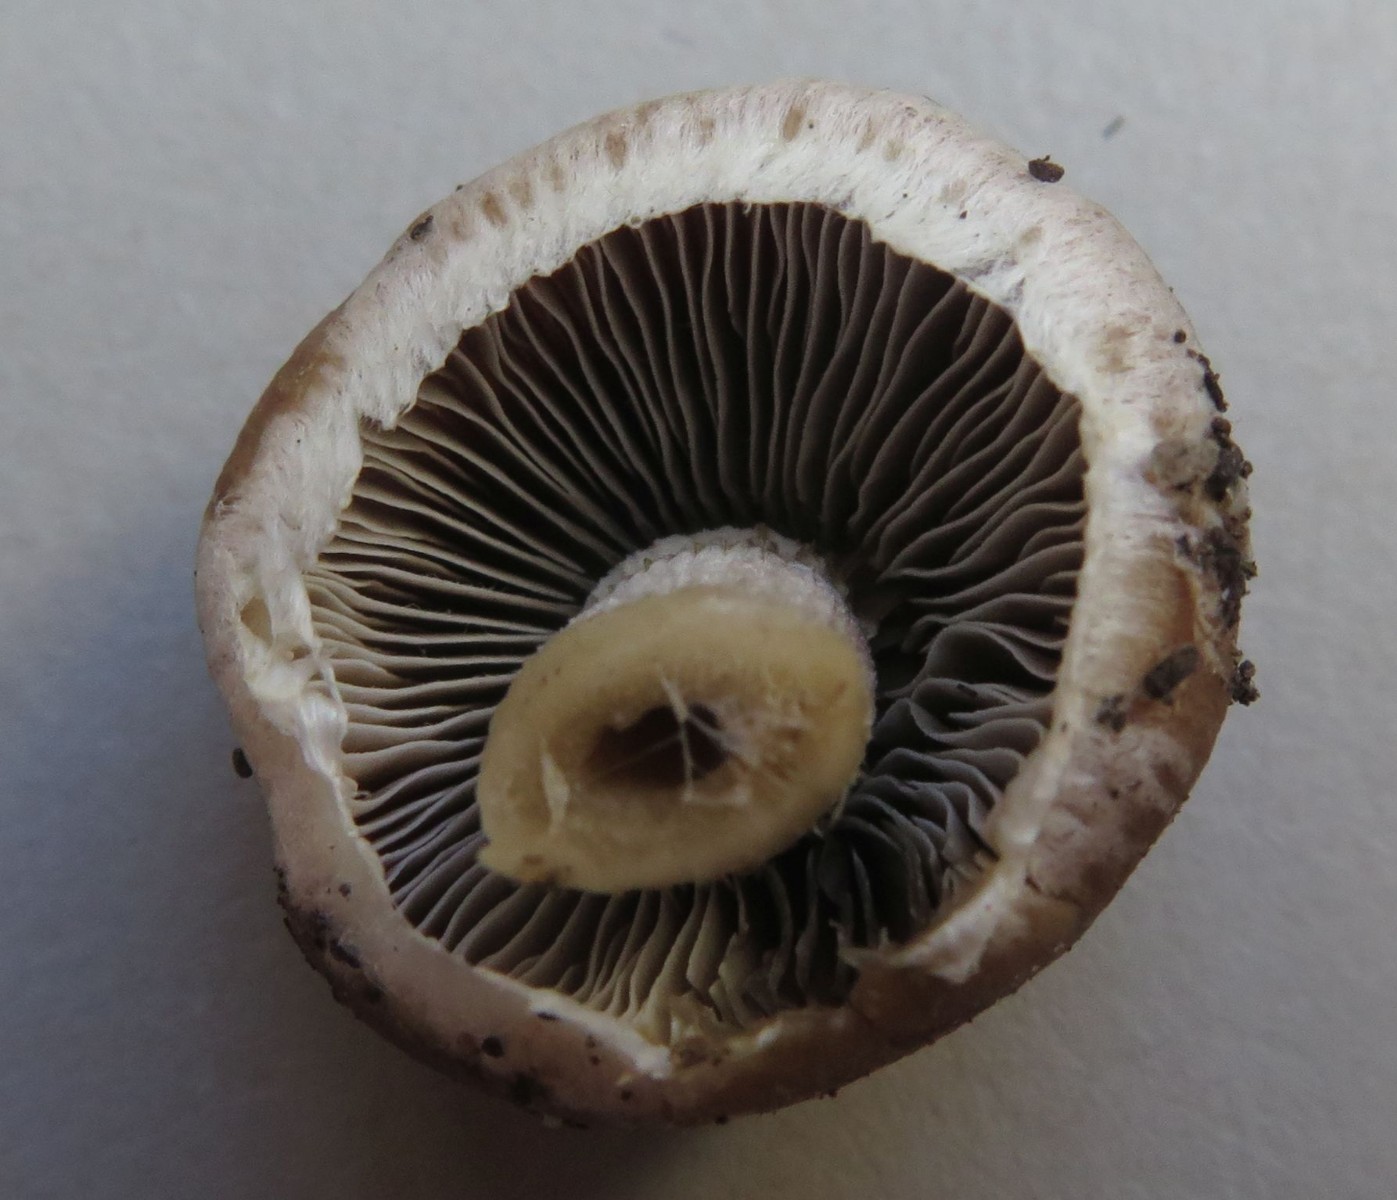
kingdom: Fungi
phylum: Basidiomycota
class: Agaricomycetes
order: Agaricales
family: Psathyrellaceae
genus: Psathyrella
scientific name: Psathyrella
